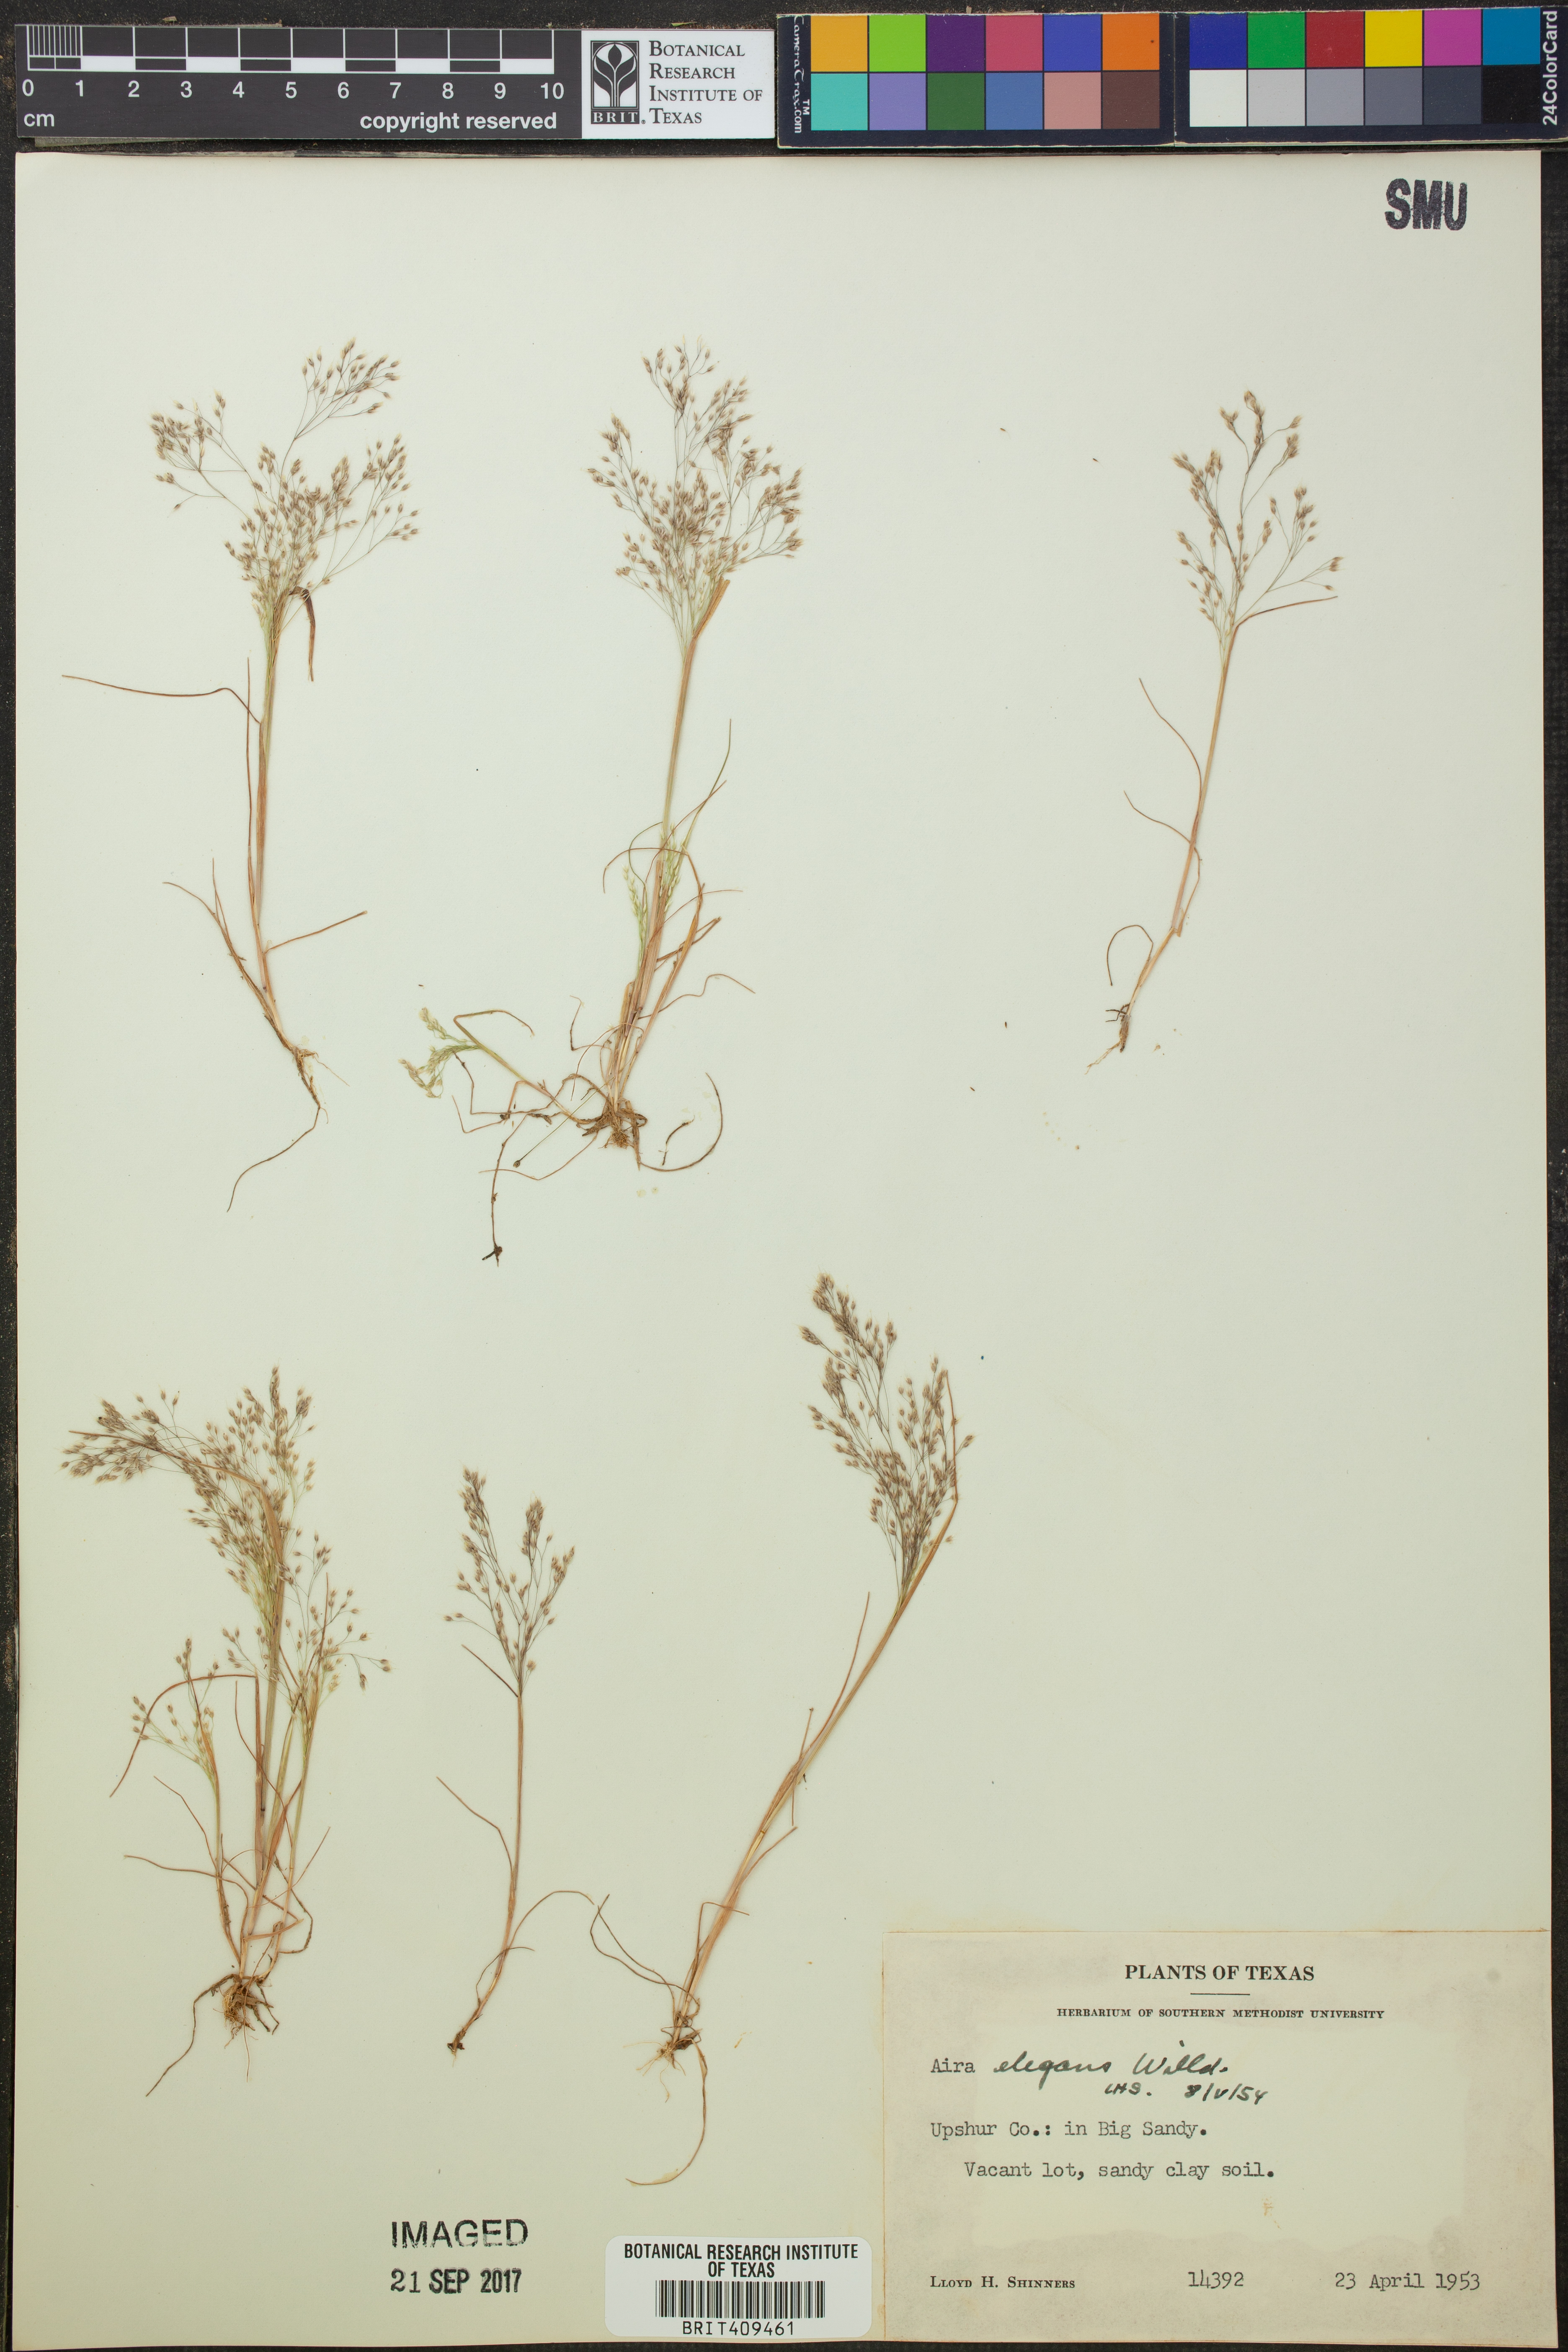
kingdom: Plantae
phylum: Tracheophyta
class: Liliopsida
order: Poales
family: Poaceae
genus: Aira
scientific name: Aira elegans
